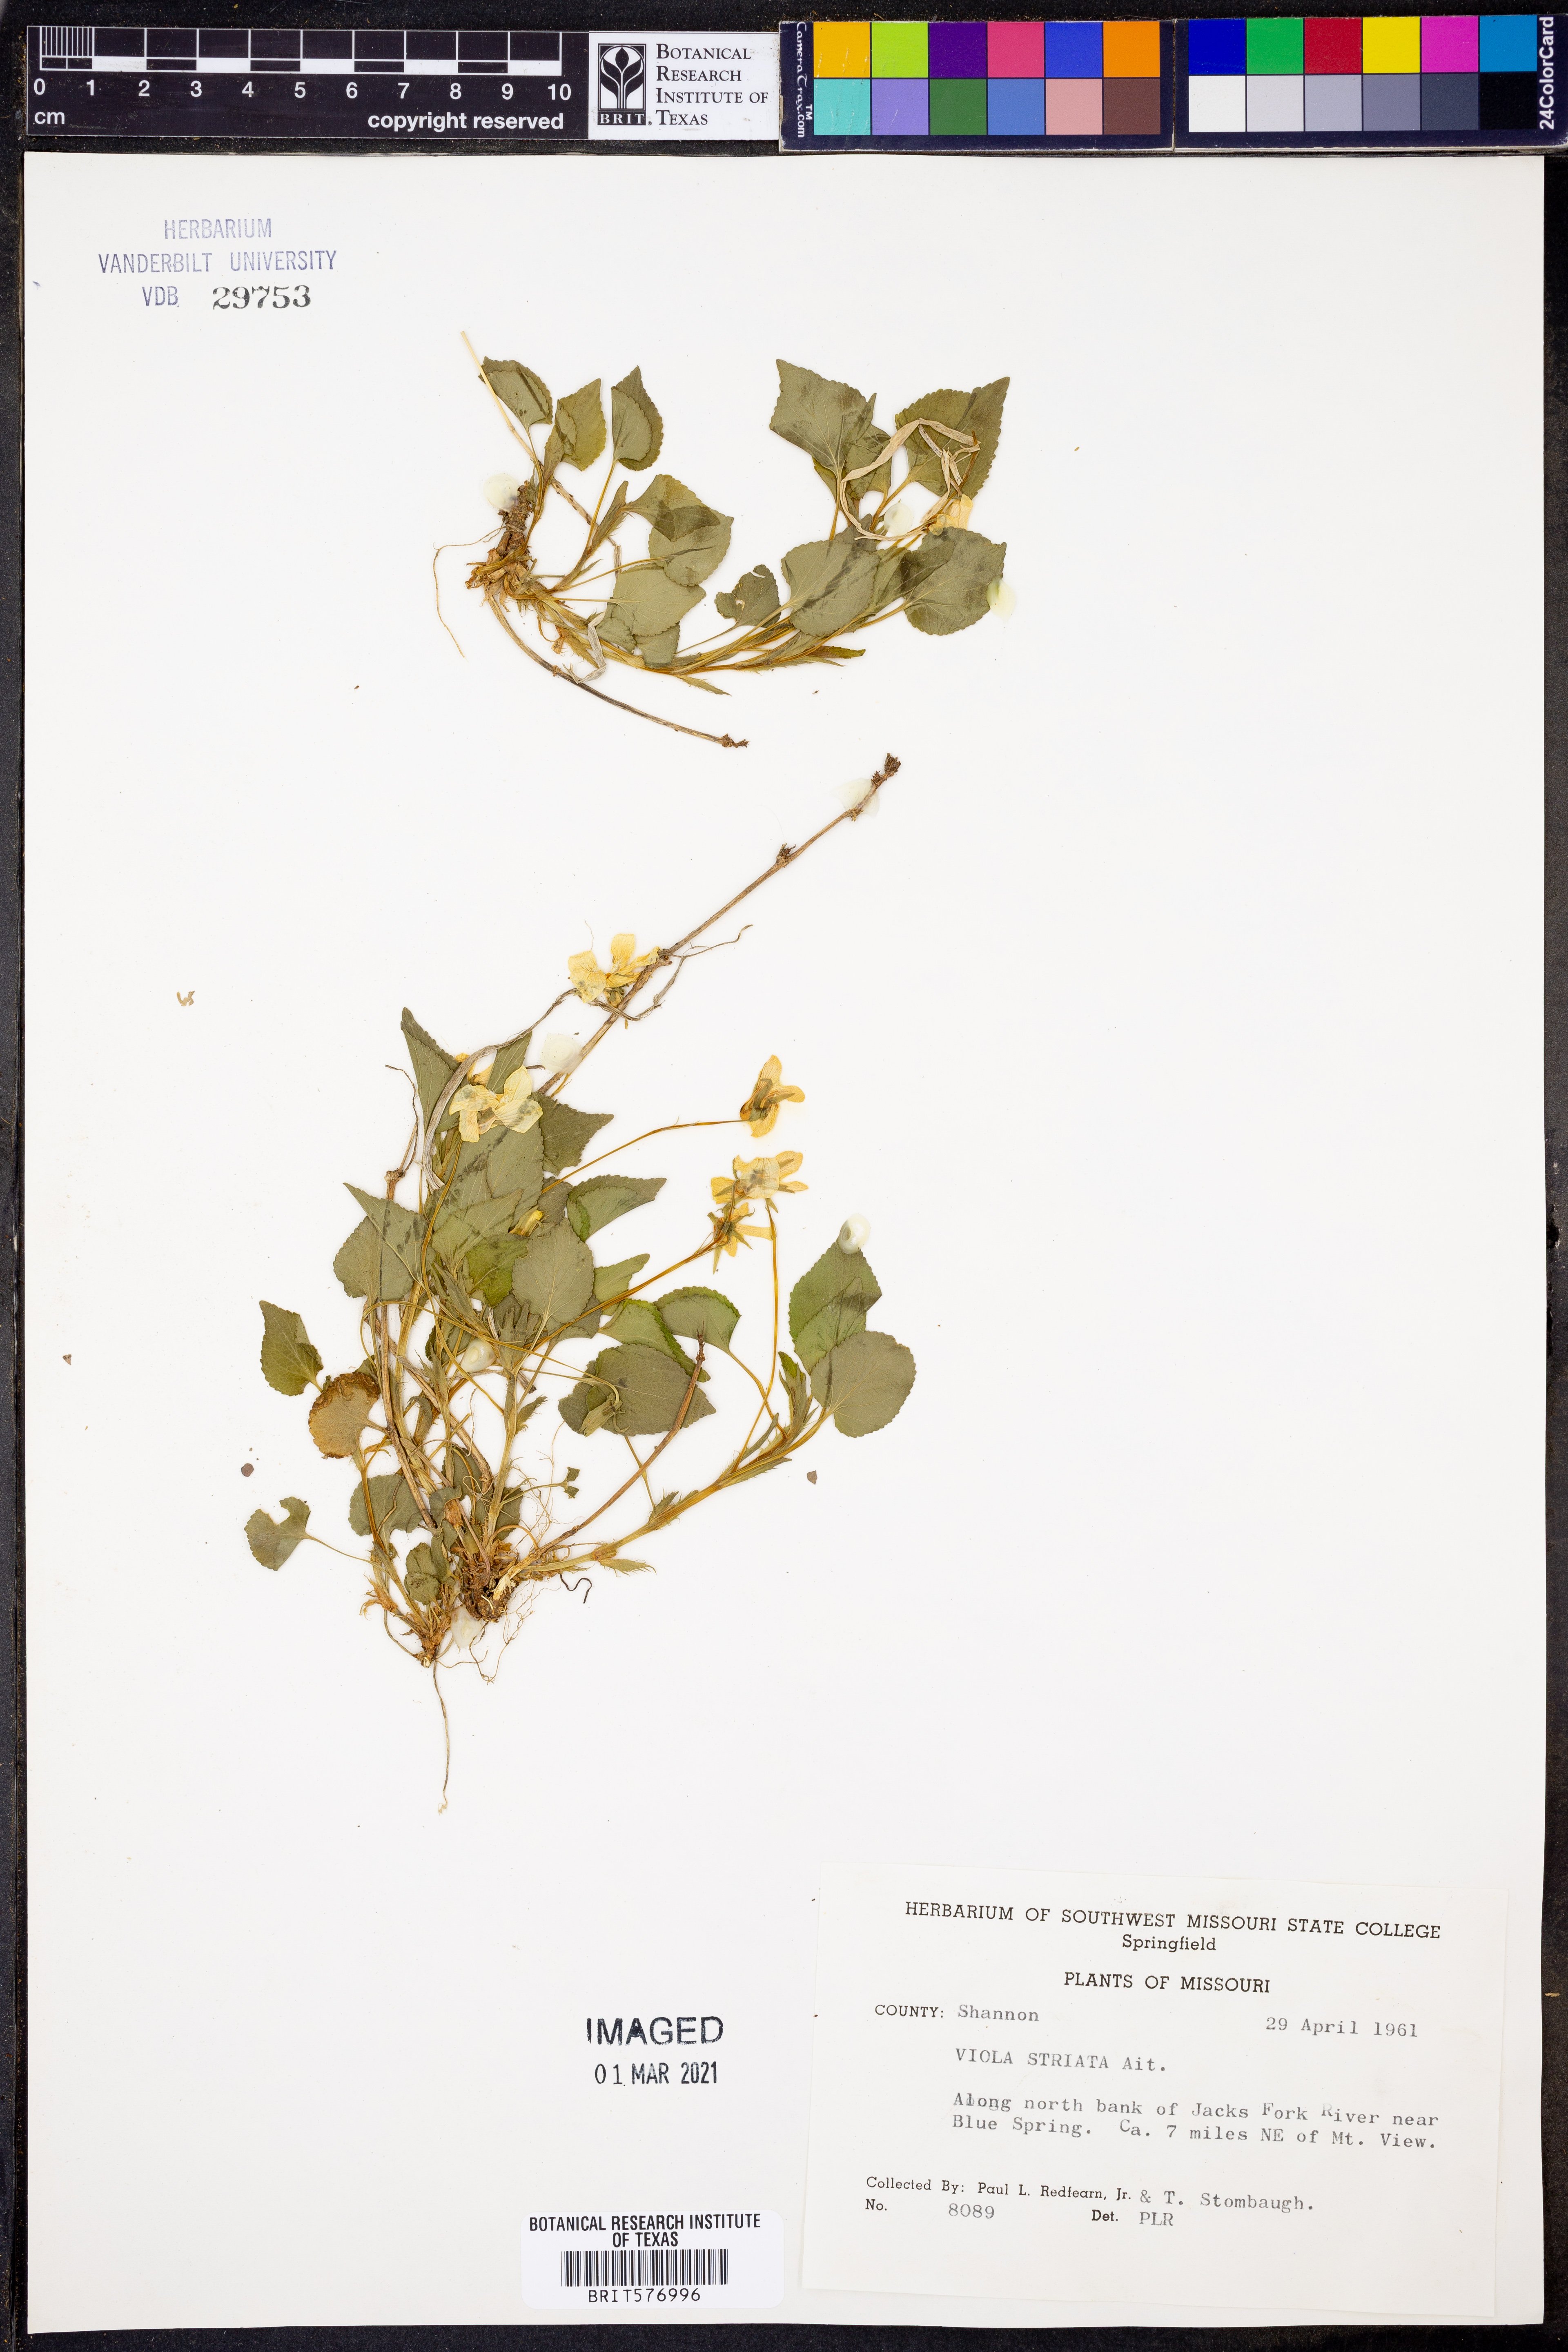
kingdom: Plantae
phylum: Tracheophyta
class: Magnoliopsida
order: Malpighiales
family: Violaceae
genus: Viola
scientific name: Viola striata
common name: Cream violet
